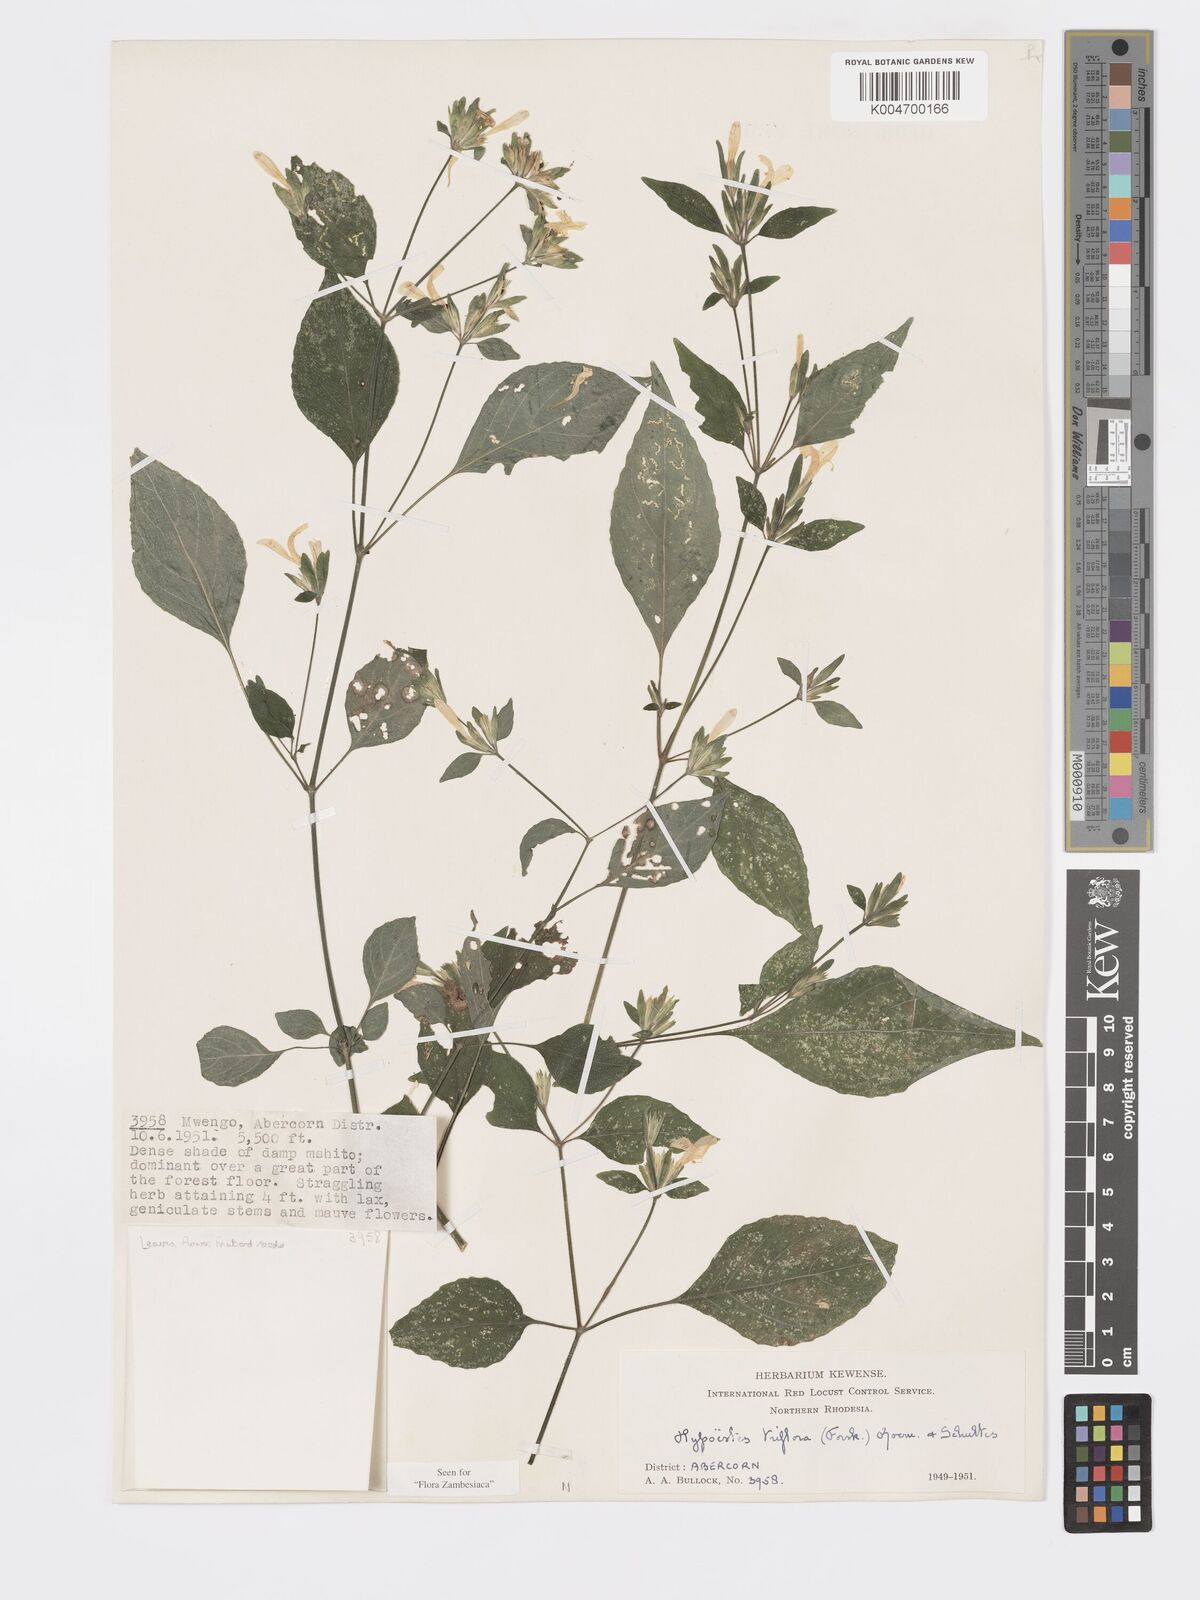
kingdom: Plantae
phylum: Tracheophyta
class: Magnoliopsida
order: Lamiales
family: Acanthaceae
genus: Hypoestes
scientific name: Hypoestes triflora
